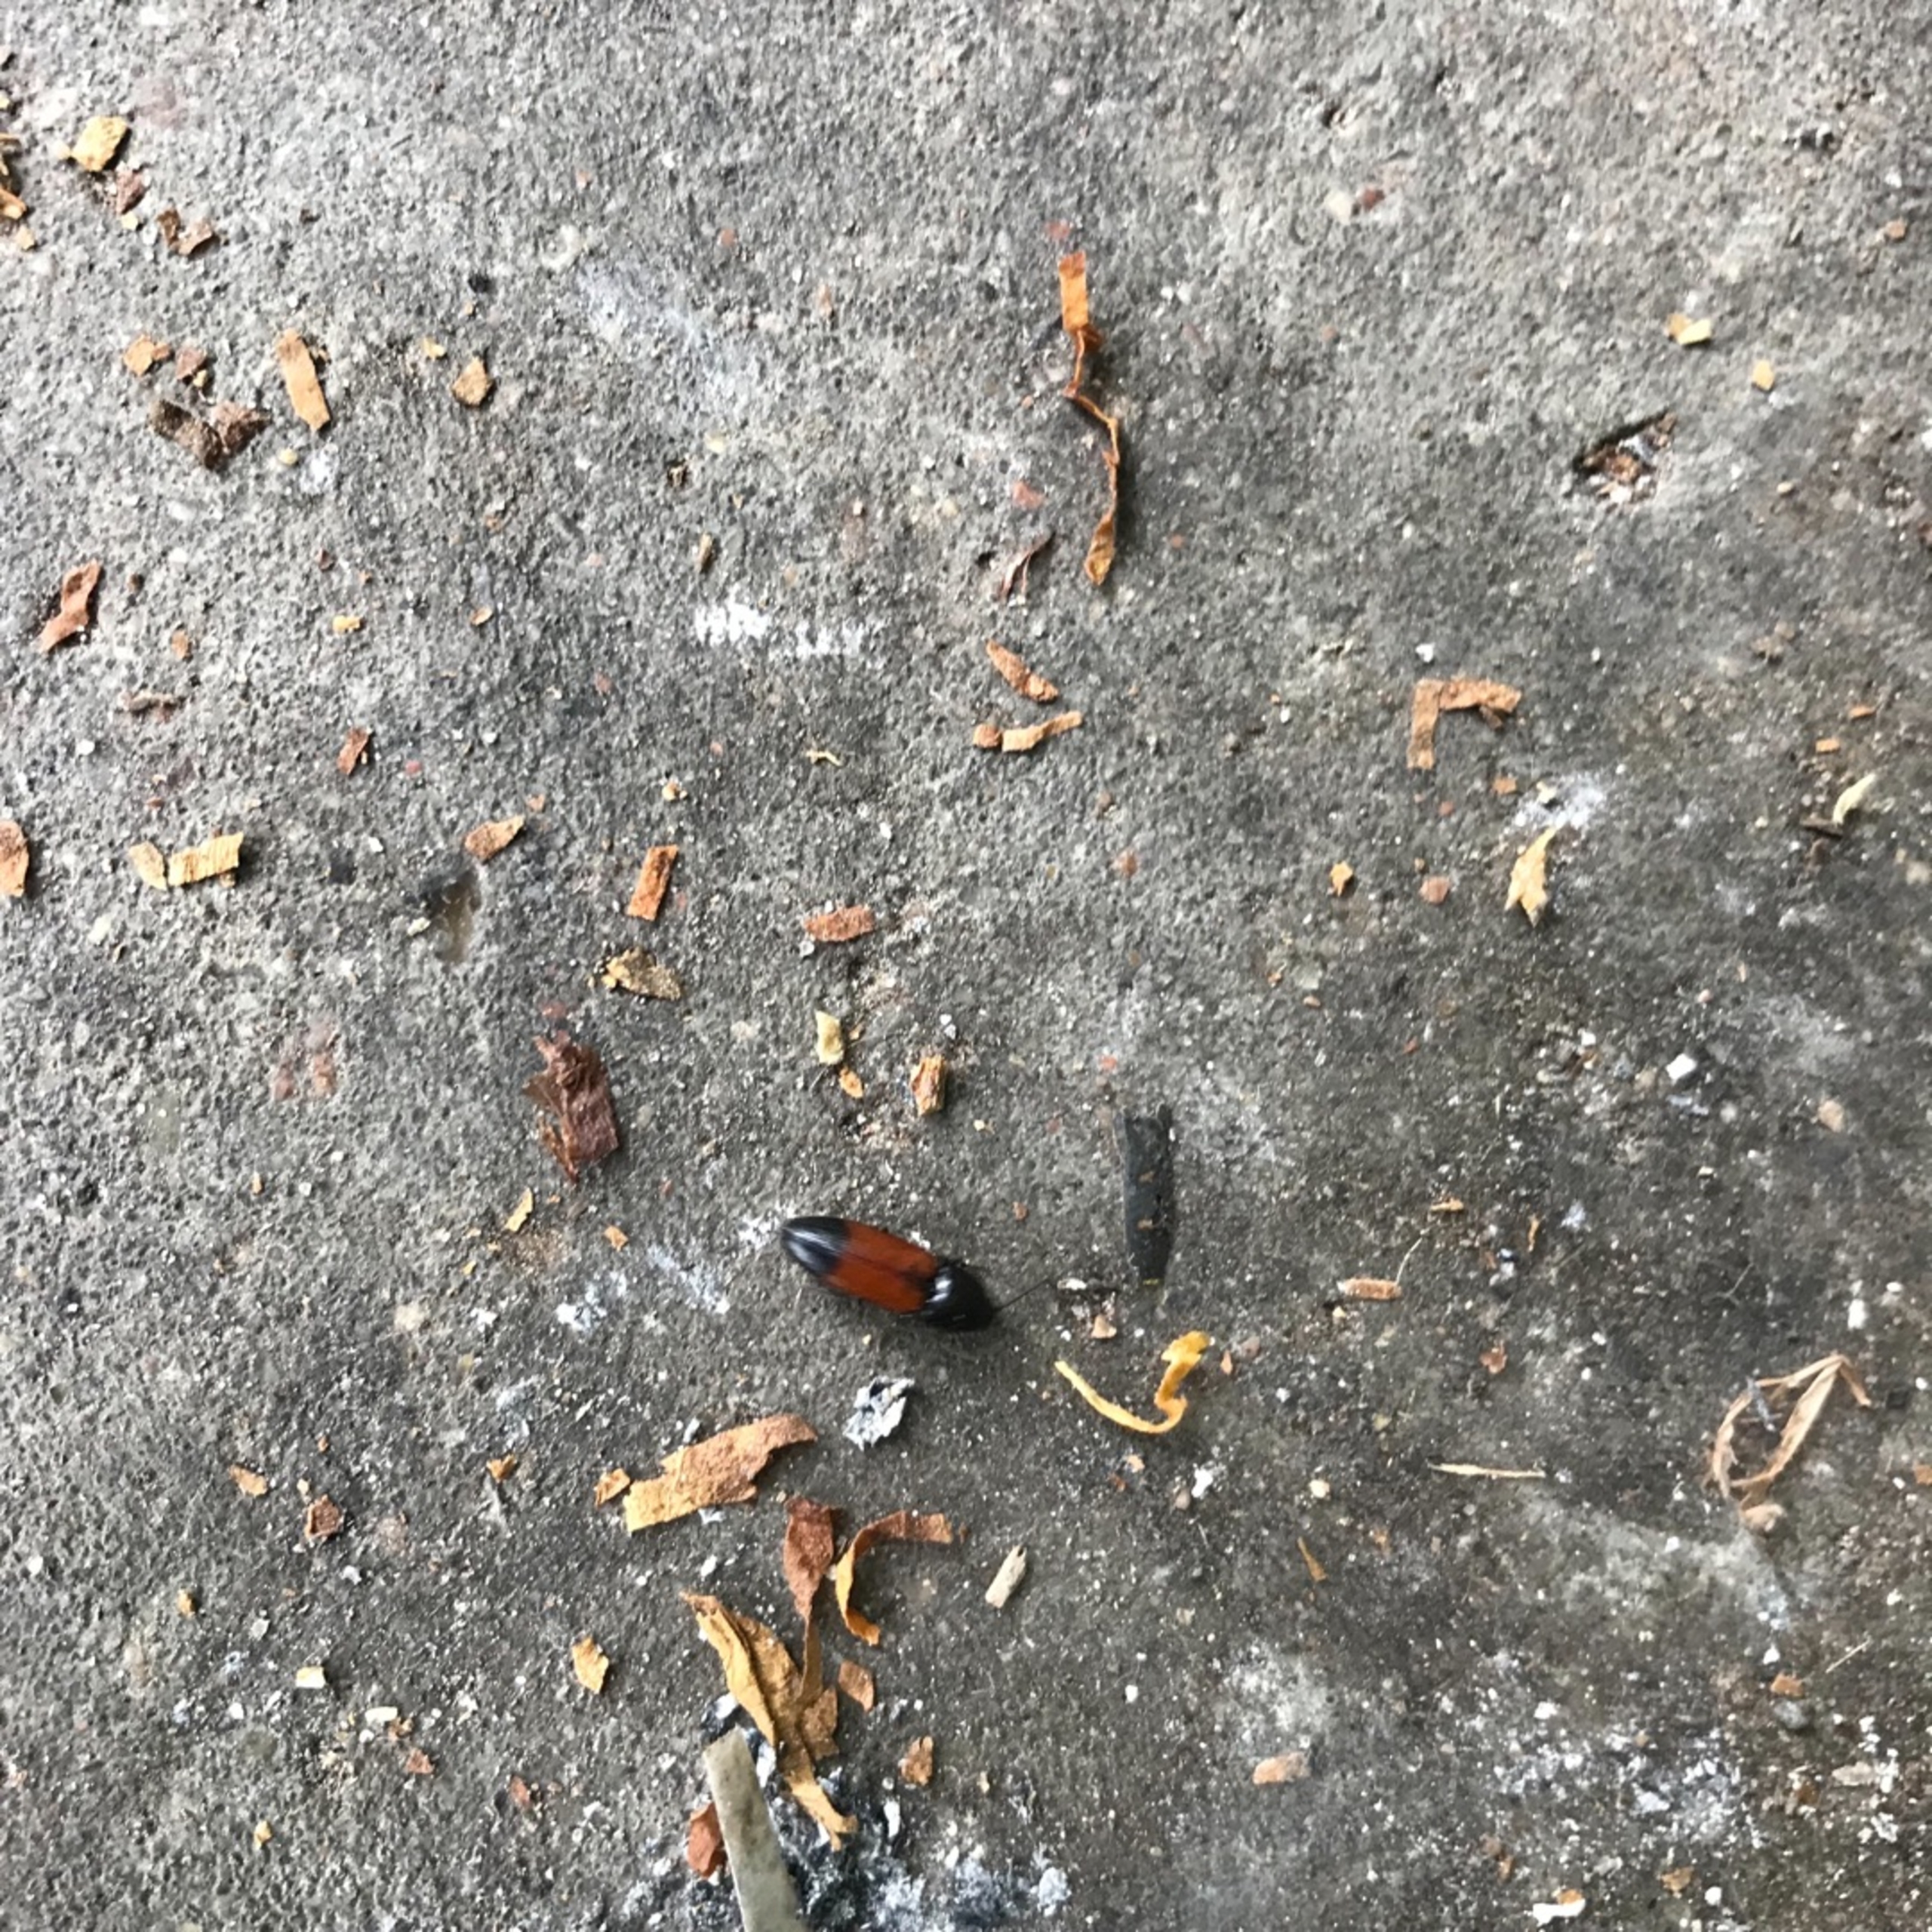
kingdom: Animalia
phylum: Arthropoda
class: Insecta
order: Coleoptera
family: Elateridae
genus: Ampedus
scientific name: Ampedus balteatus
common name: Tvefarvet skovsmælder
